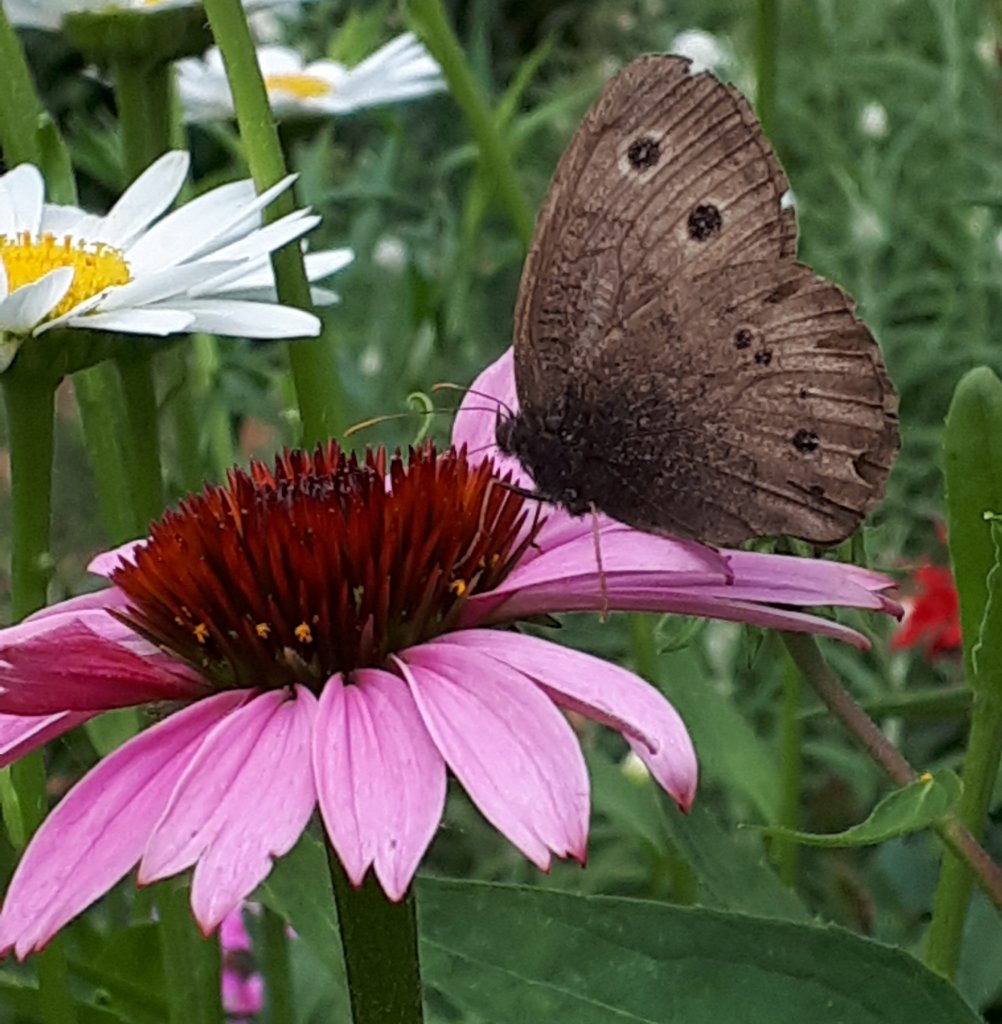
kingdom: Animalia
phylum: Arthropoda
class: Insecta
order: Lepidoptera
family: Nymphalidae
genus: Cercyonis
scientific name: Cercyonis pegala
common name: Common Wood-Nymph
